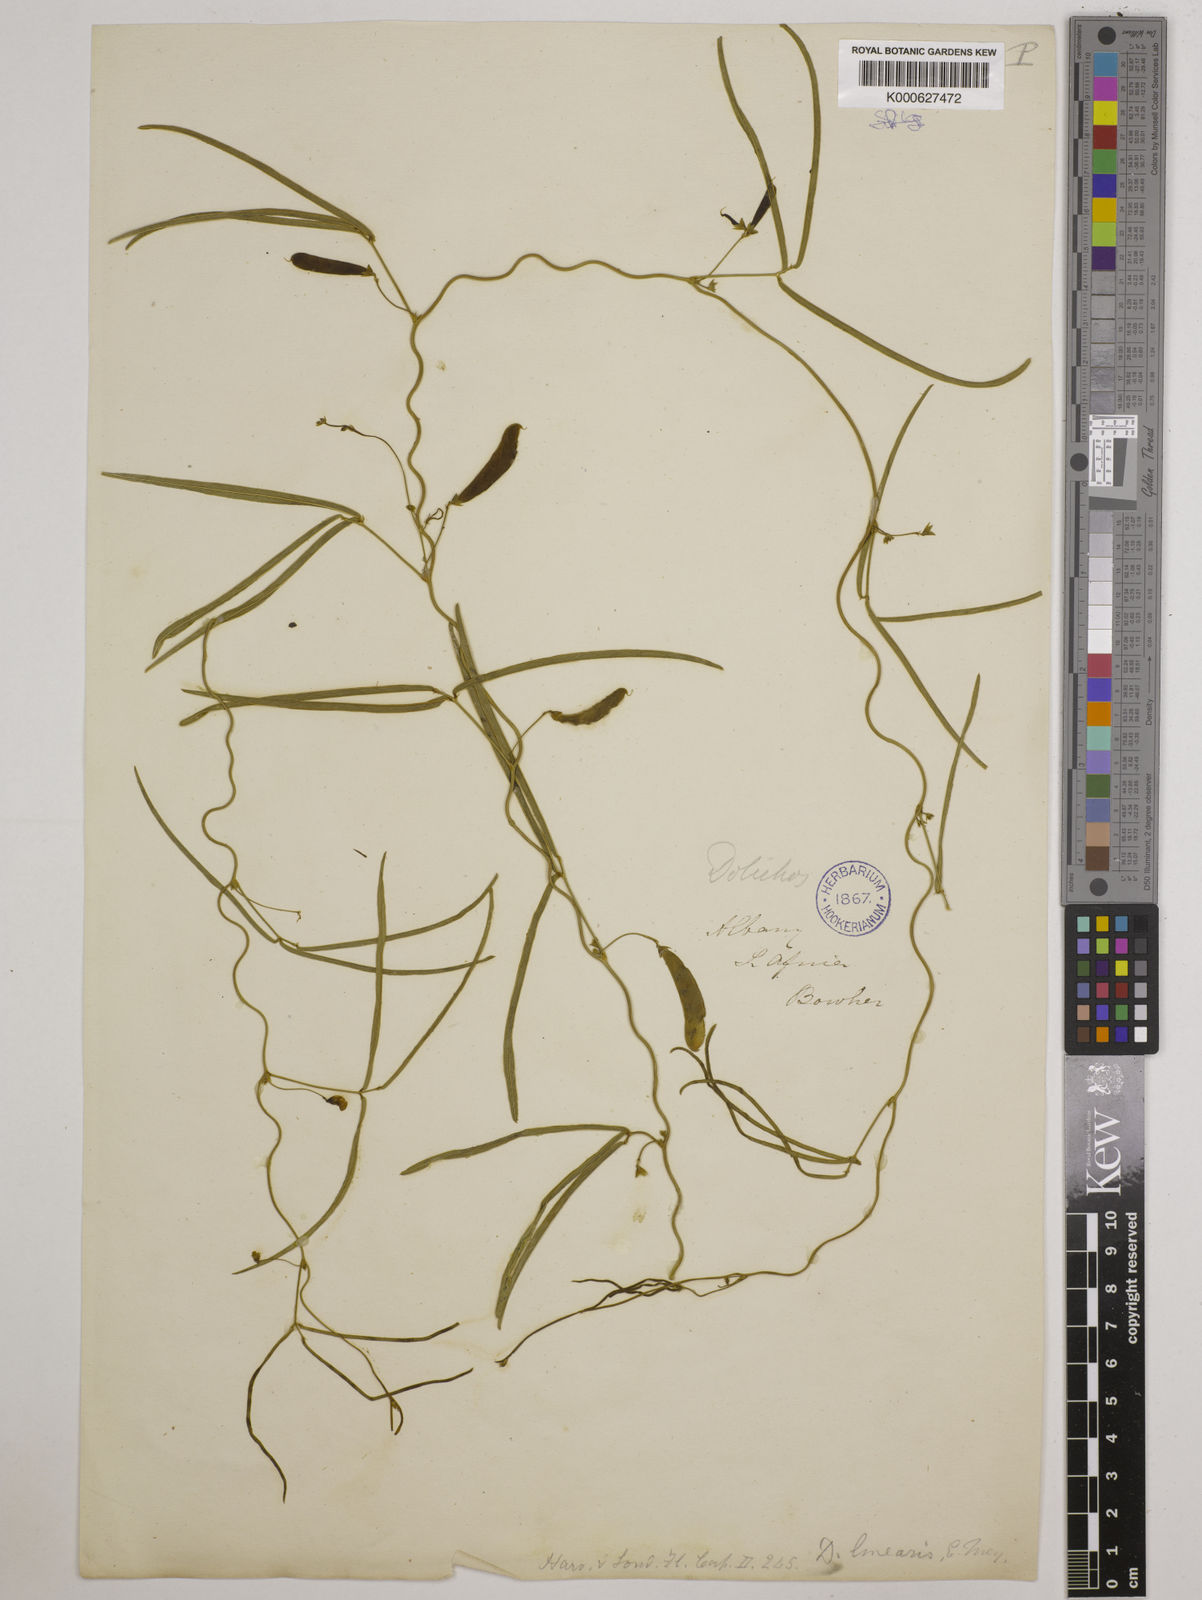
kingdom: Plantae
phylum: Tracheophyta
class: Magnoliopsida
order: Fabales
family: Fabaceae
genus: Dolichos
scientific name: Dolichos linearis
